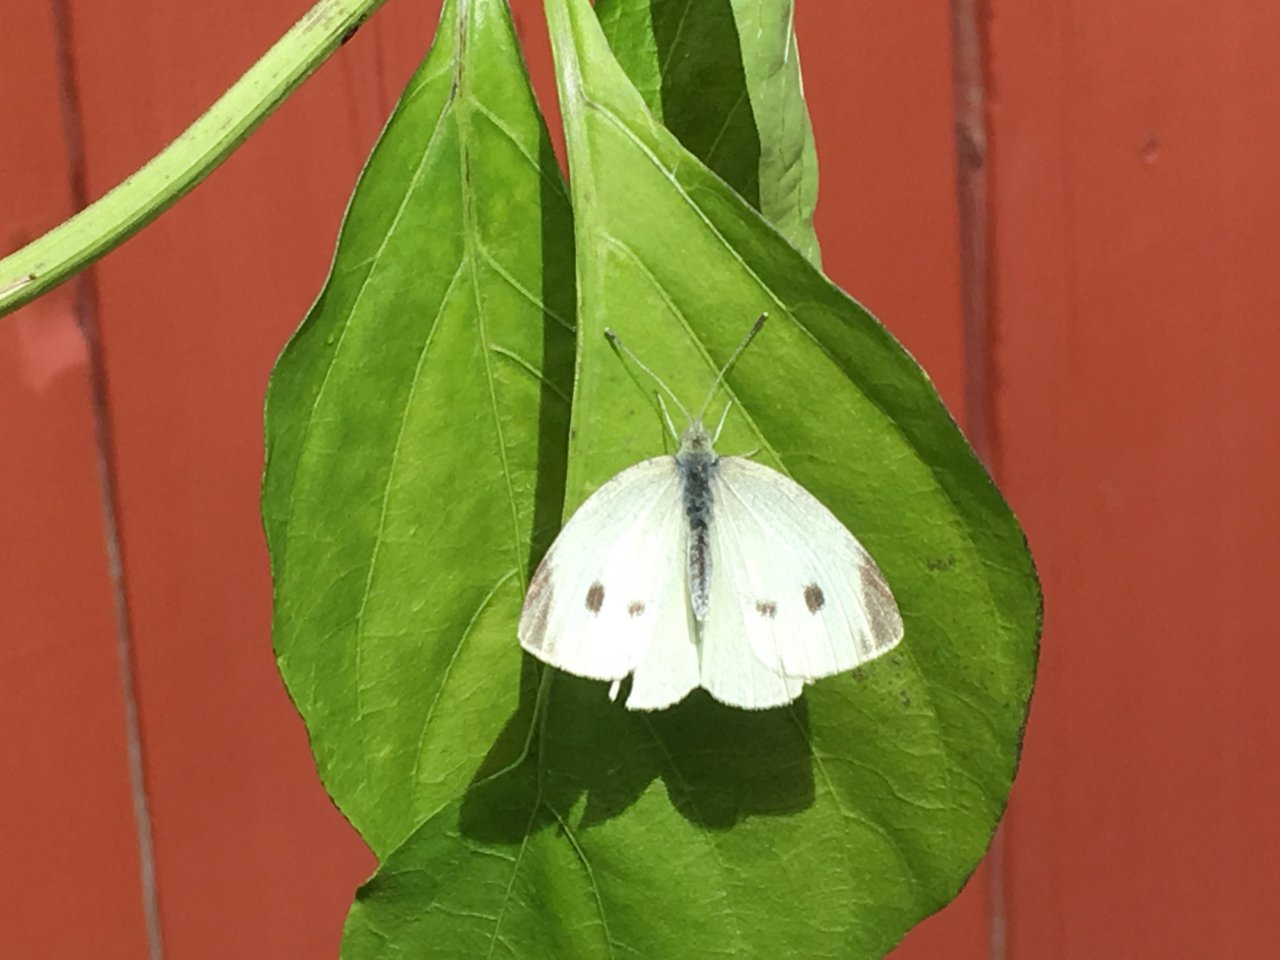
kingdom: Animalia
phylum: Arthropoda
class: Insecta
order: Lepidoptera
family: Pieridae
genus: Pieris
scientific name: Pieris rapae
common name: Cabbage White
